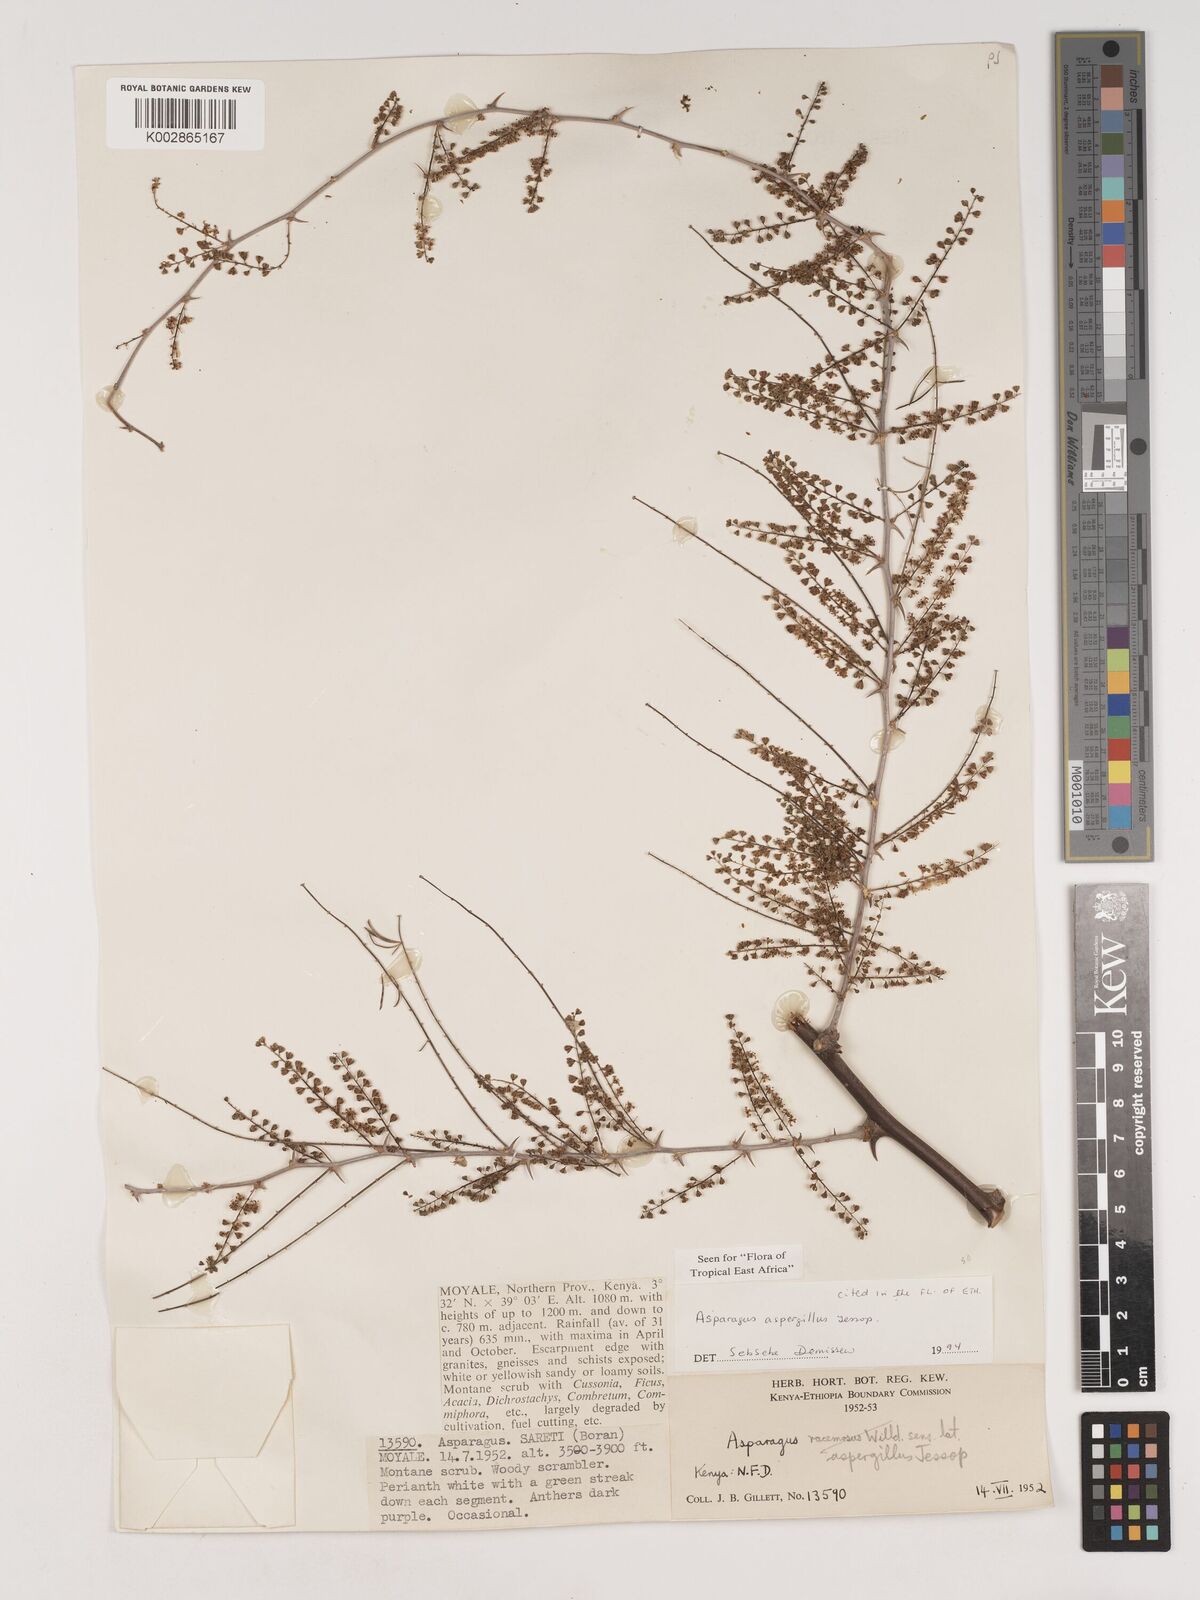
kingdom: Plantae
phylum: Tracheophyta
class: Liliopsida
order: Asparagales
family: Asparagaceae
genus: Asparagus
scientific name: Asparagus aspergillus
